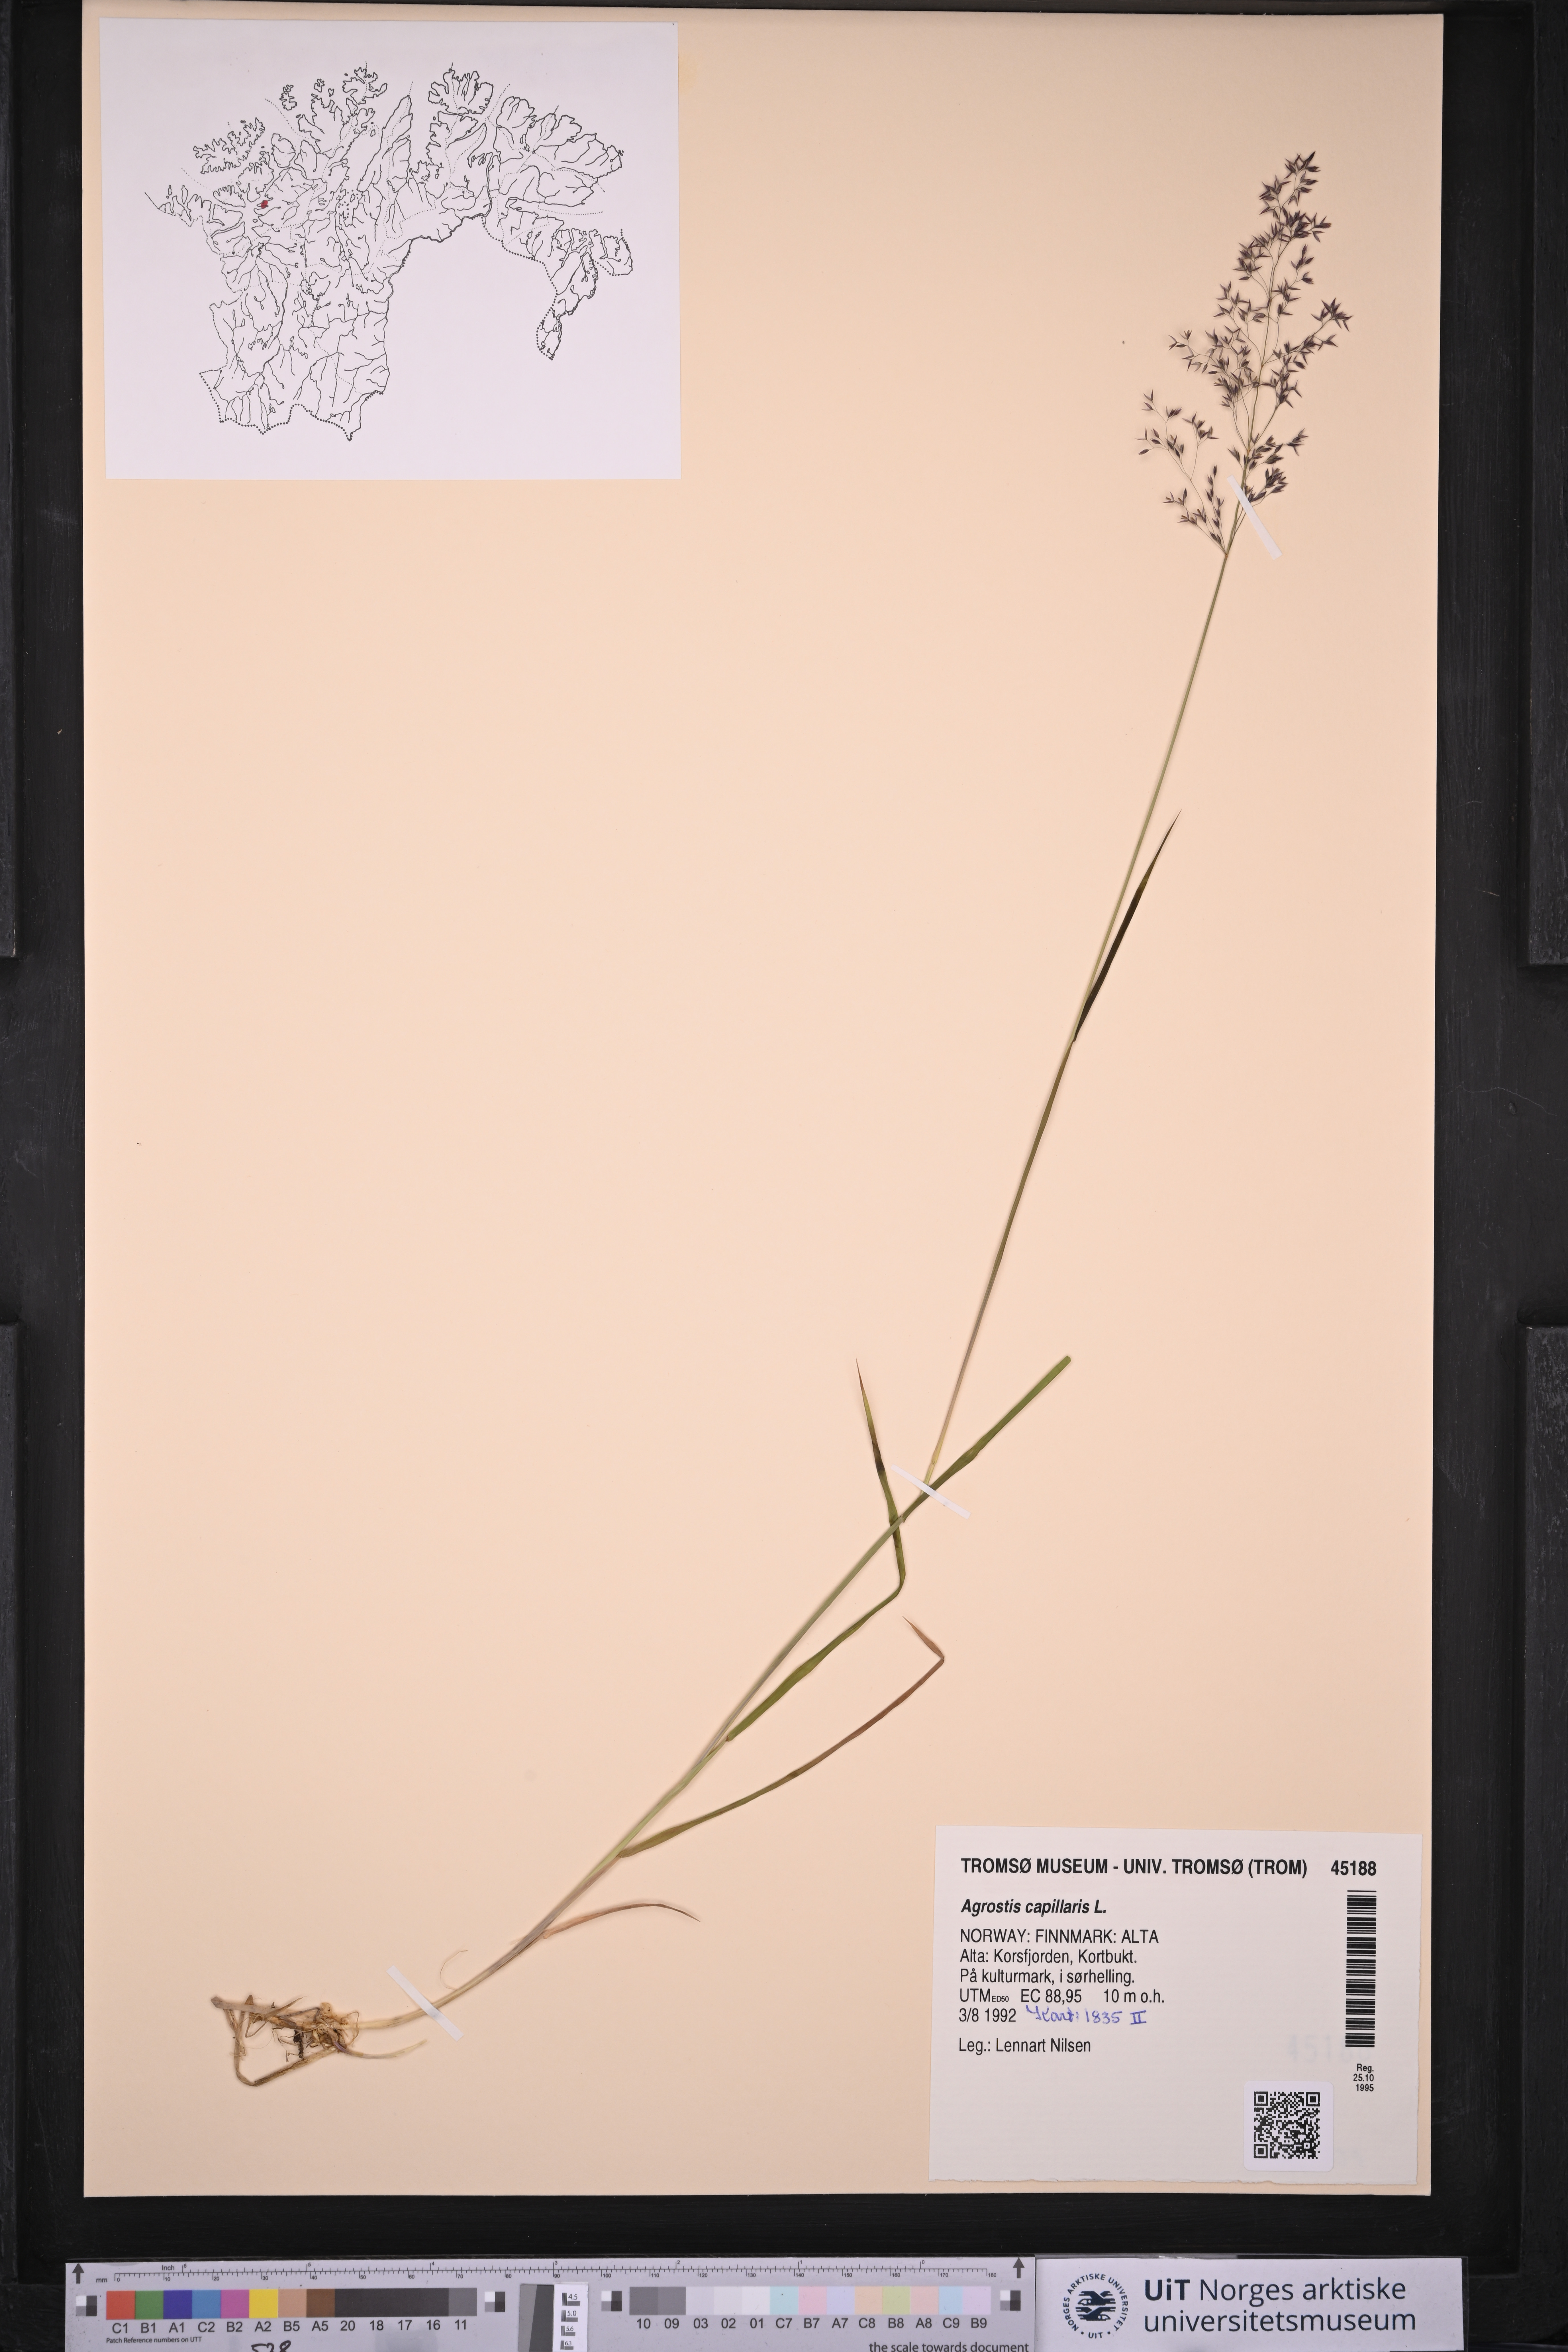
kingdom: Plantae
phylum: Tracheophyta
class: Liliopsida
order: Poales
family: Poaceae
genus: Agrostis
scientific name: Agrostis capillaris
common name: Colonial bentgrass
